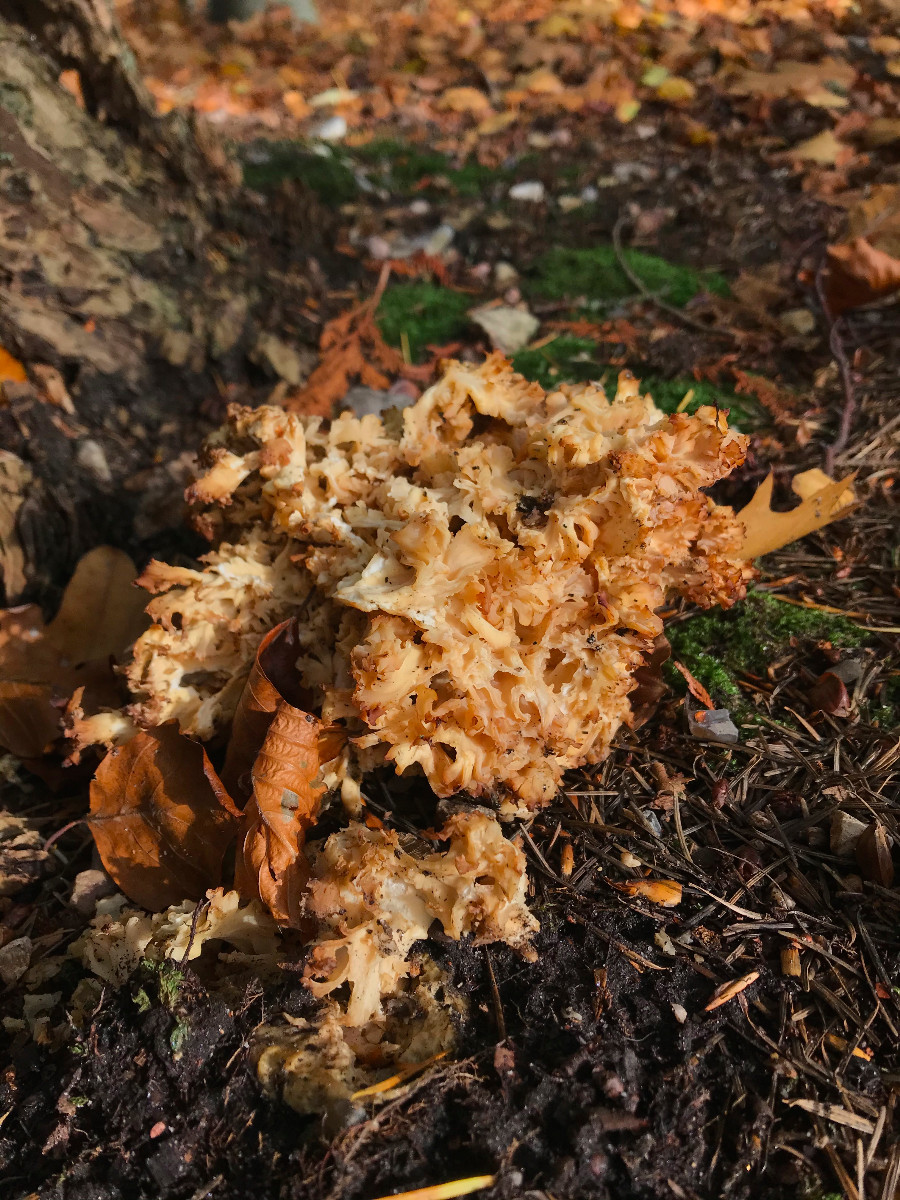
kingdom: Fungi
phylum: Basidiomycota
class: Agaricomycetes
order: Polyporales
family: Sparassidaceae
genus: Sparassis
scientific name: Sparassis crispa
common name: kruset blomkålssvamp
